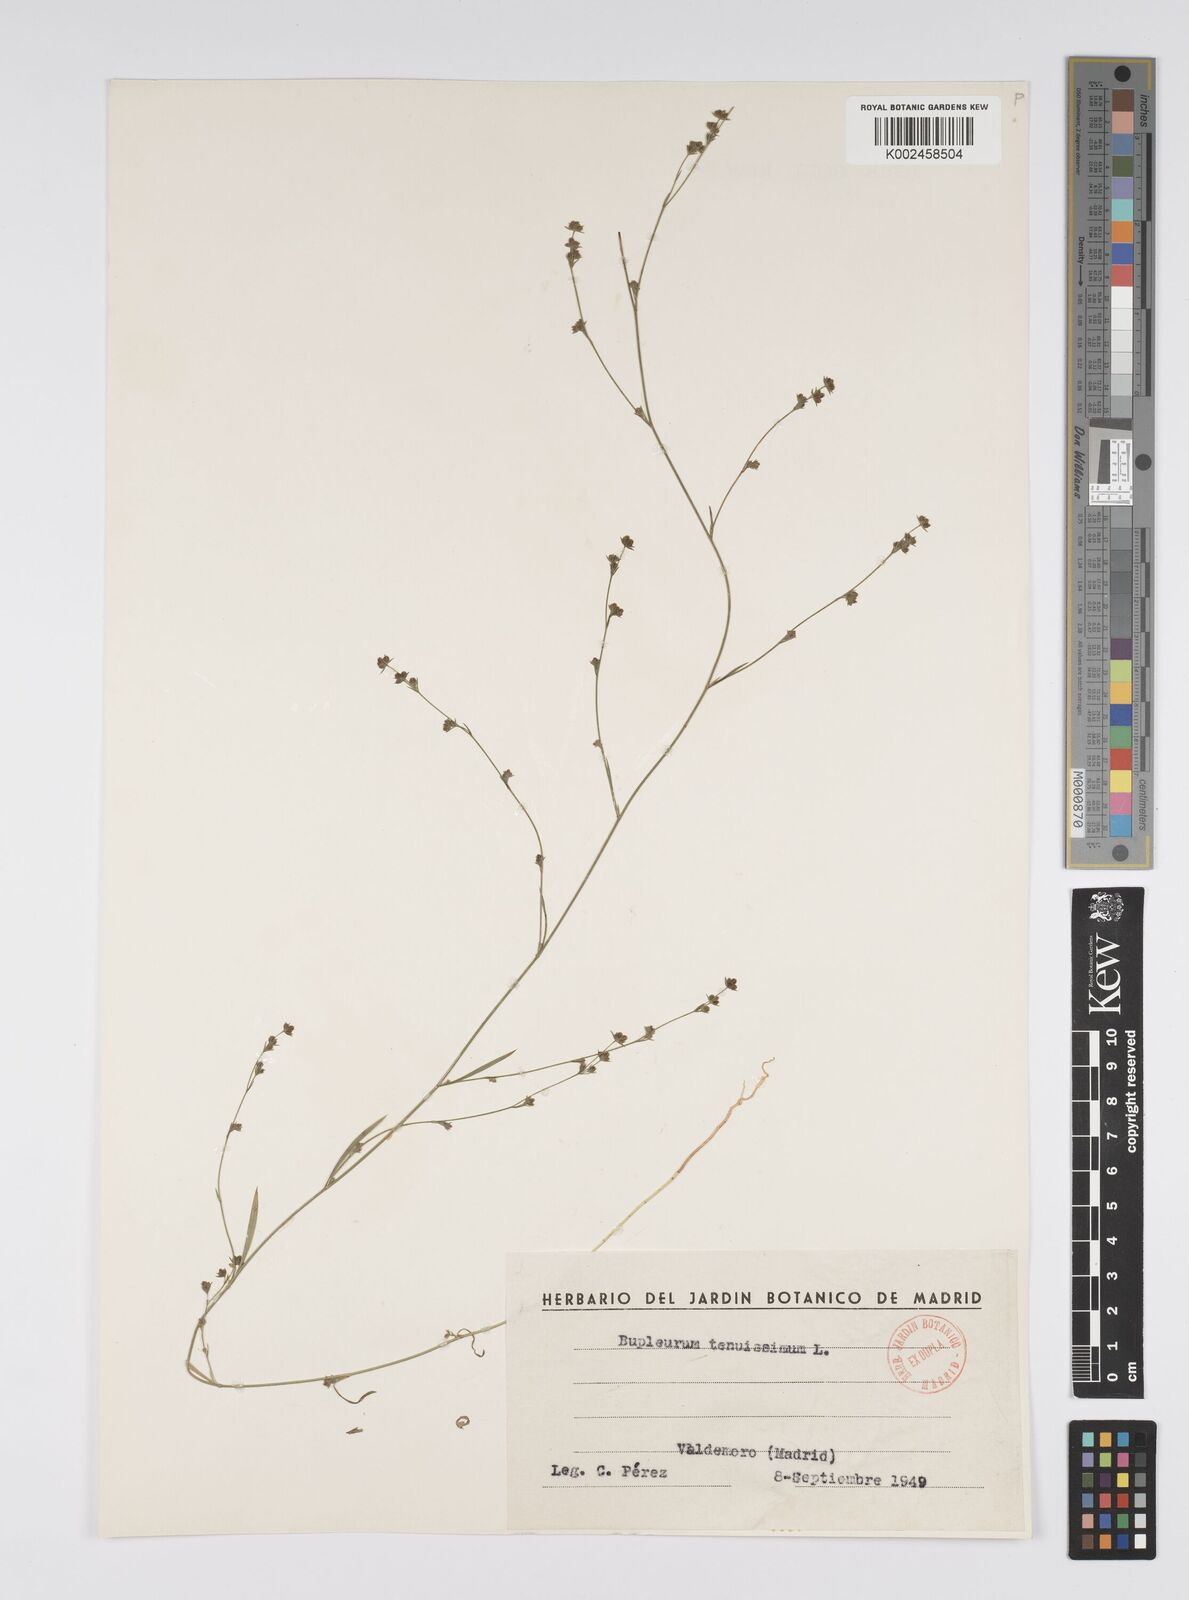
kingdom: Plantae
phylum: Tracheophyta
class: Magnoliopsida
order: Apiales
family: Apiaceae
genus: Bupleurum
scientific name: Bupleurum tenuissimum
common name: Slender hare's-ear
